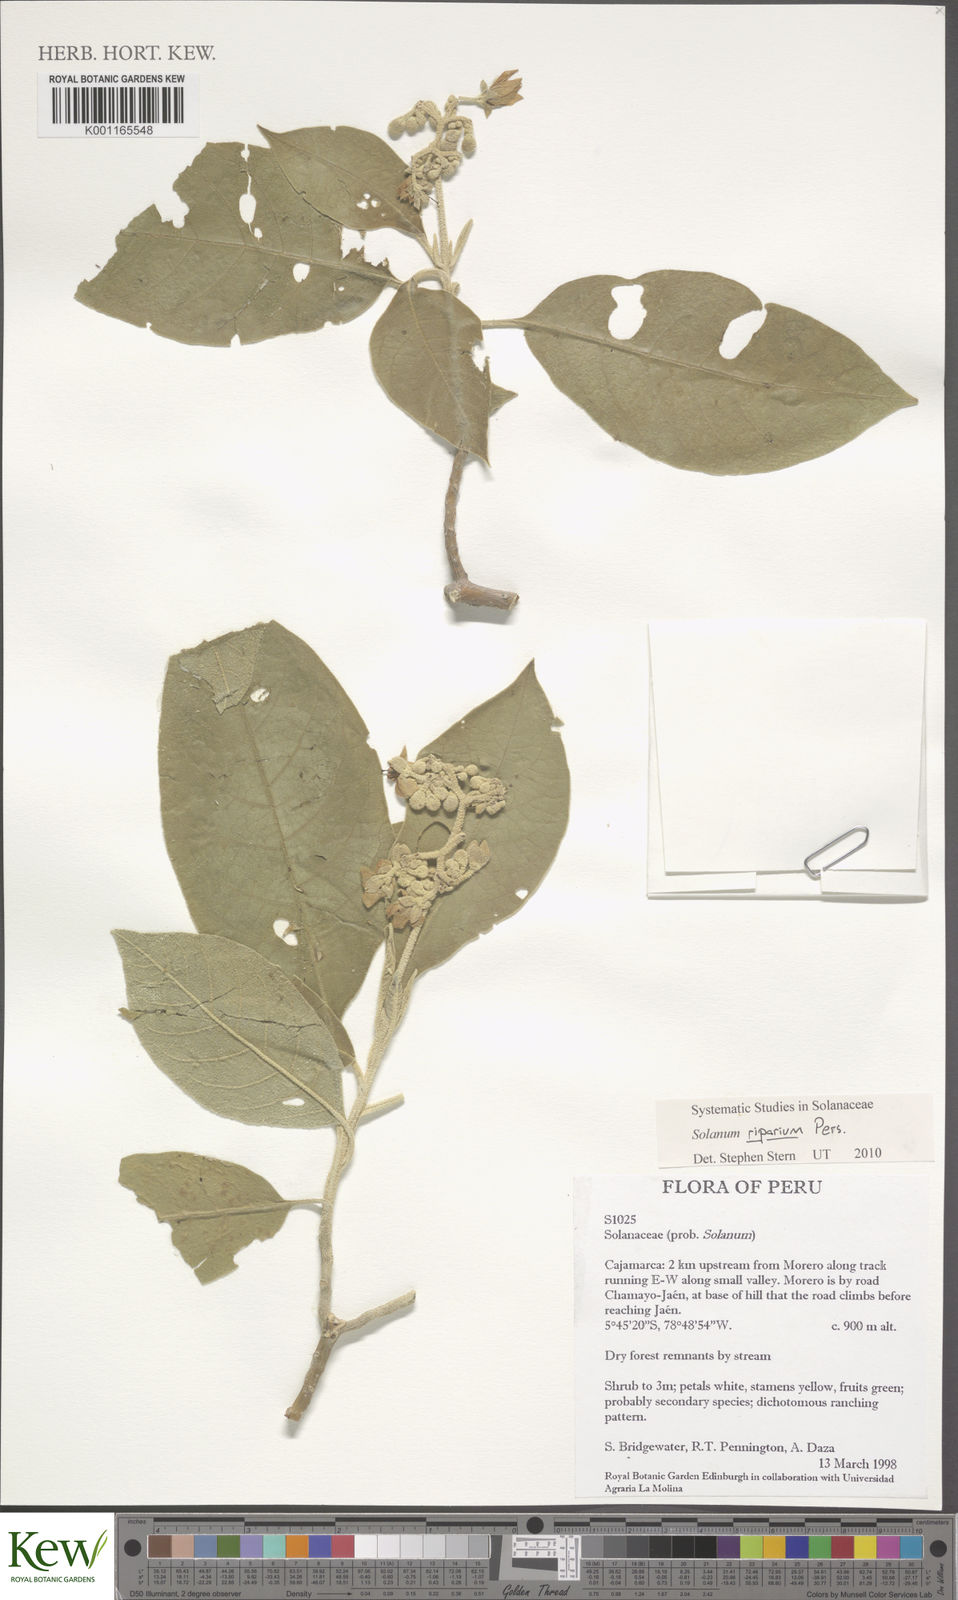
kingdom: Plantae
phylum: Tracheophyta
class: Magnoliopsida
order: Solanales
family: Solanaceae
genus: Solanum
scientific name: Solanum riparium
